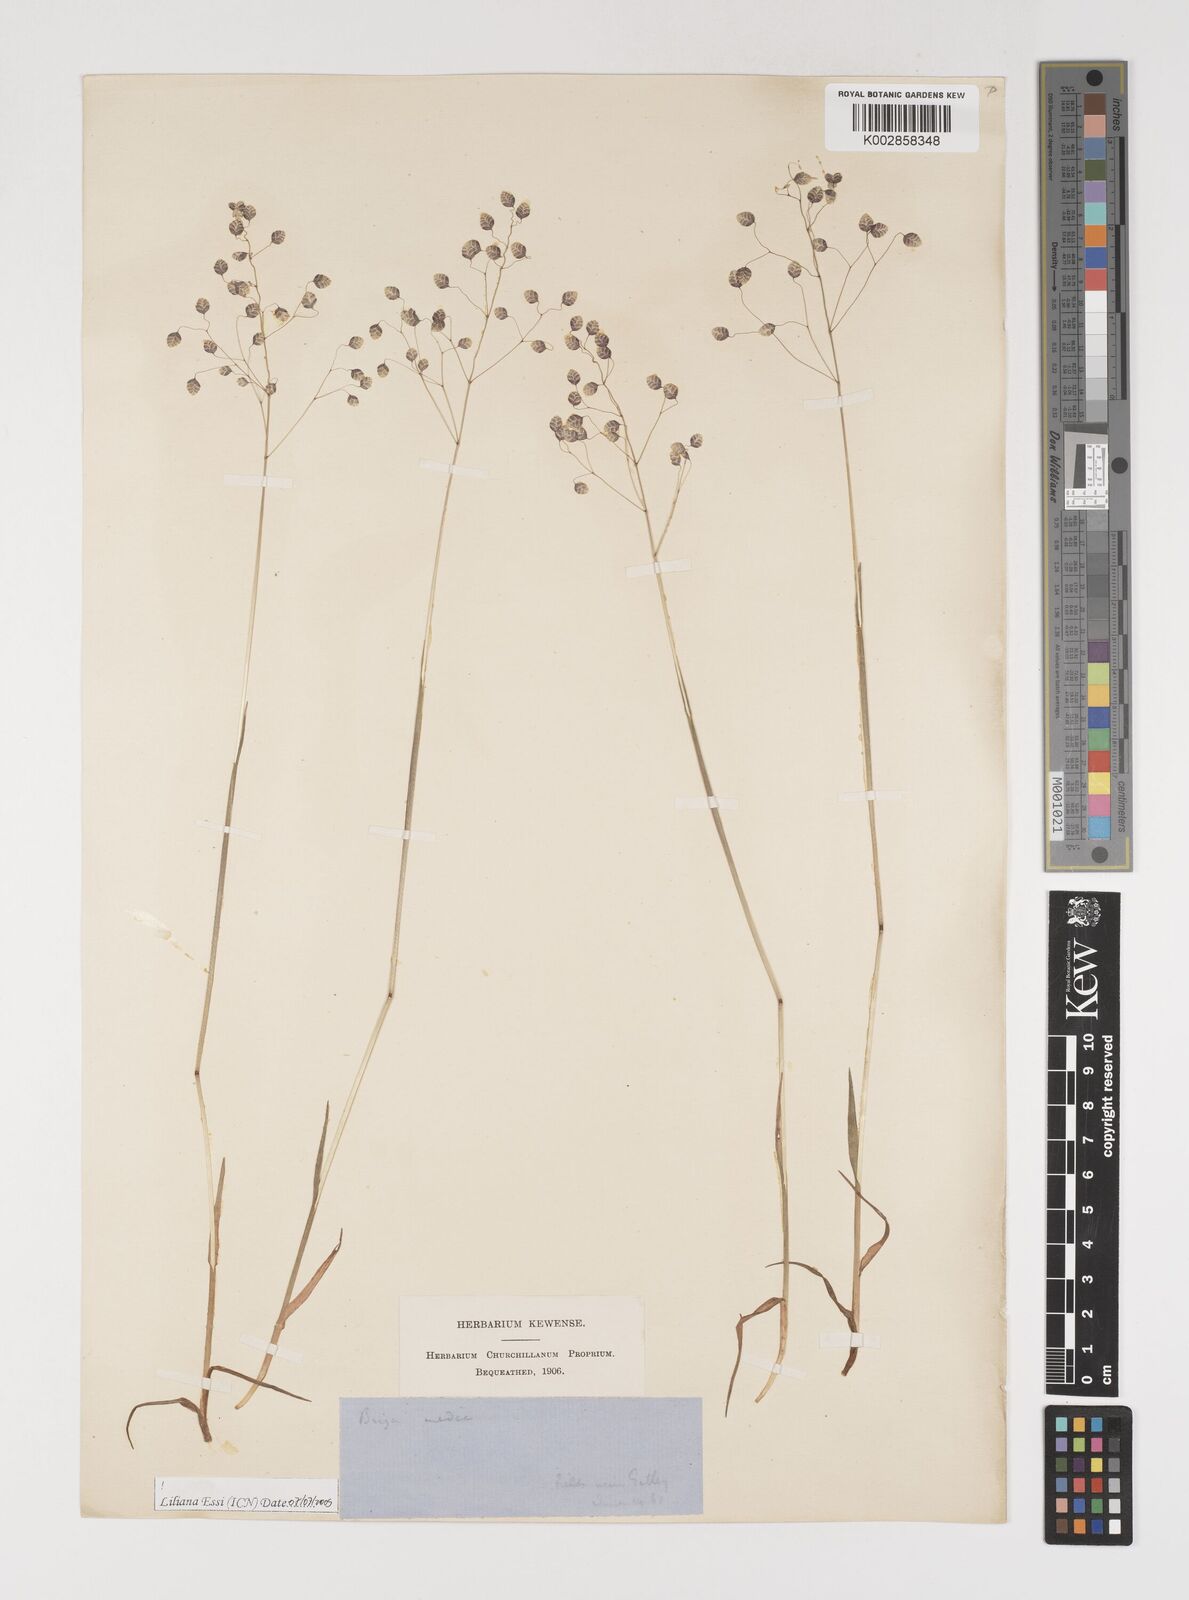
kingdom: Plantae
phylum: Tracheophyta
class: Liliopsida
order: Poales
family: Poaceae
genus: Briza
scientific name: Briza media
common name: Quaking grass
